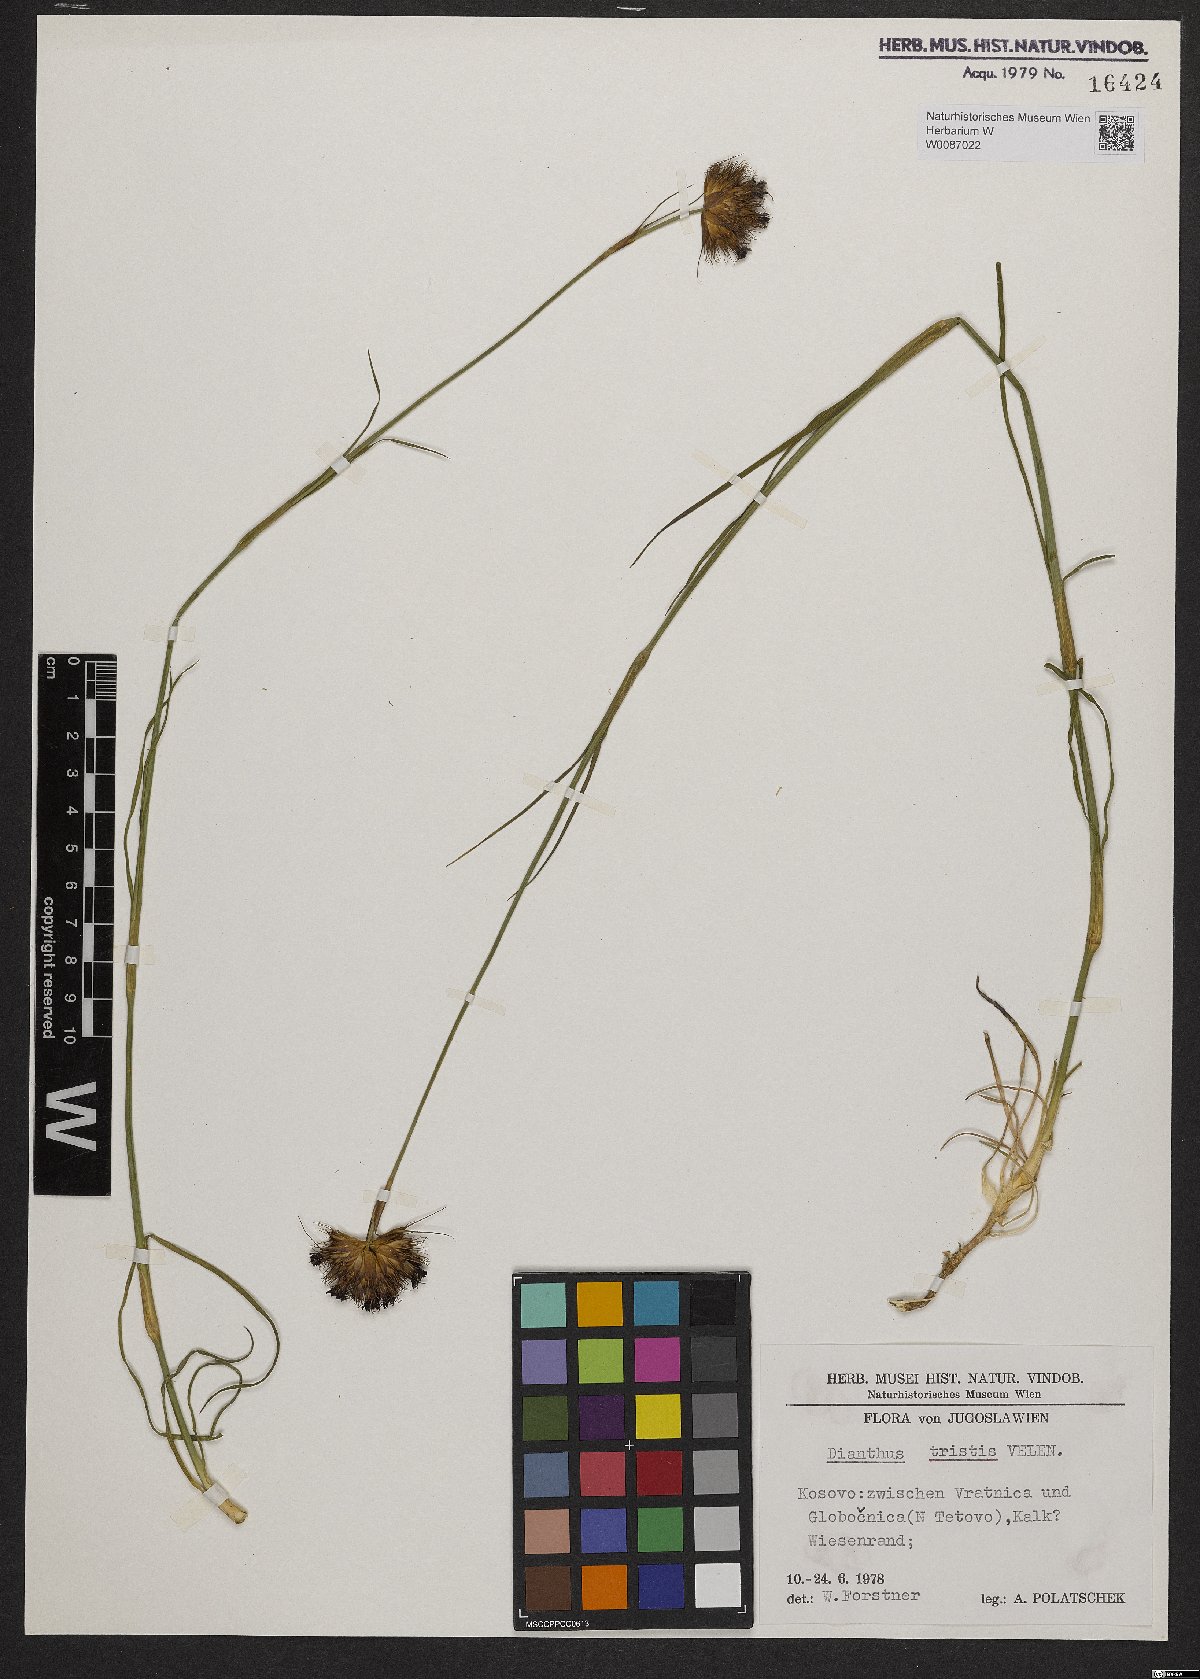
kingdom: Plantae
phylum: Tracheophyta
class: Magnoliopsida
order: Caryophyllales
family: Caryophyllaceae
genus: Dianthus
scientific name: Dianthus pancicii
